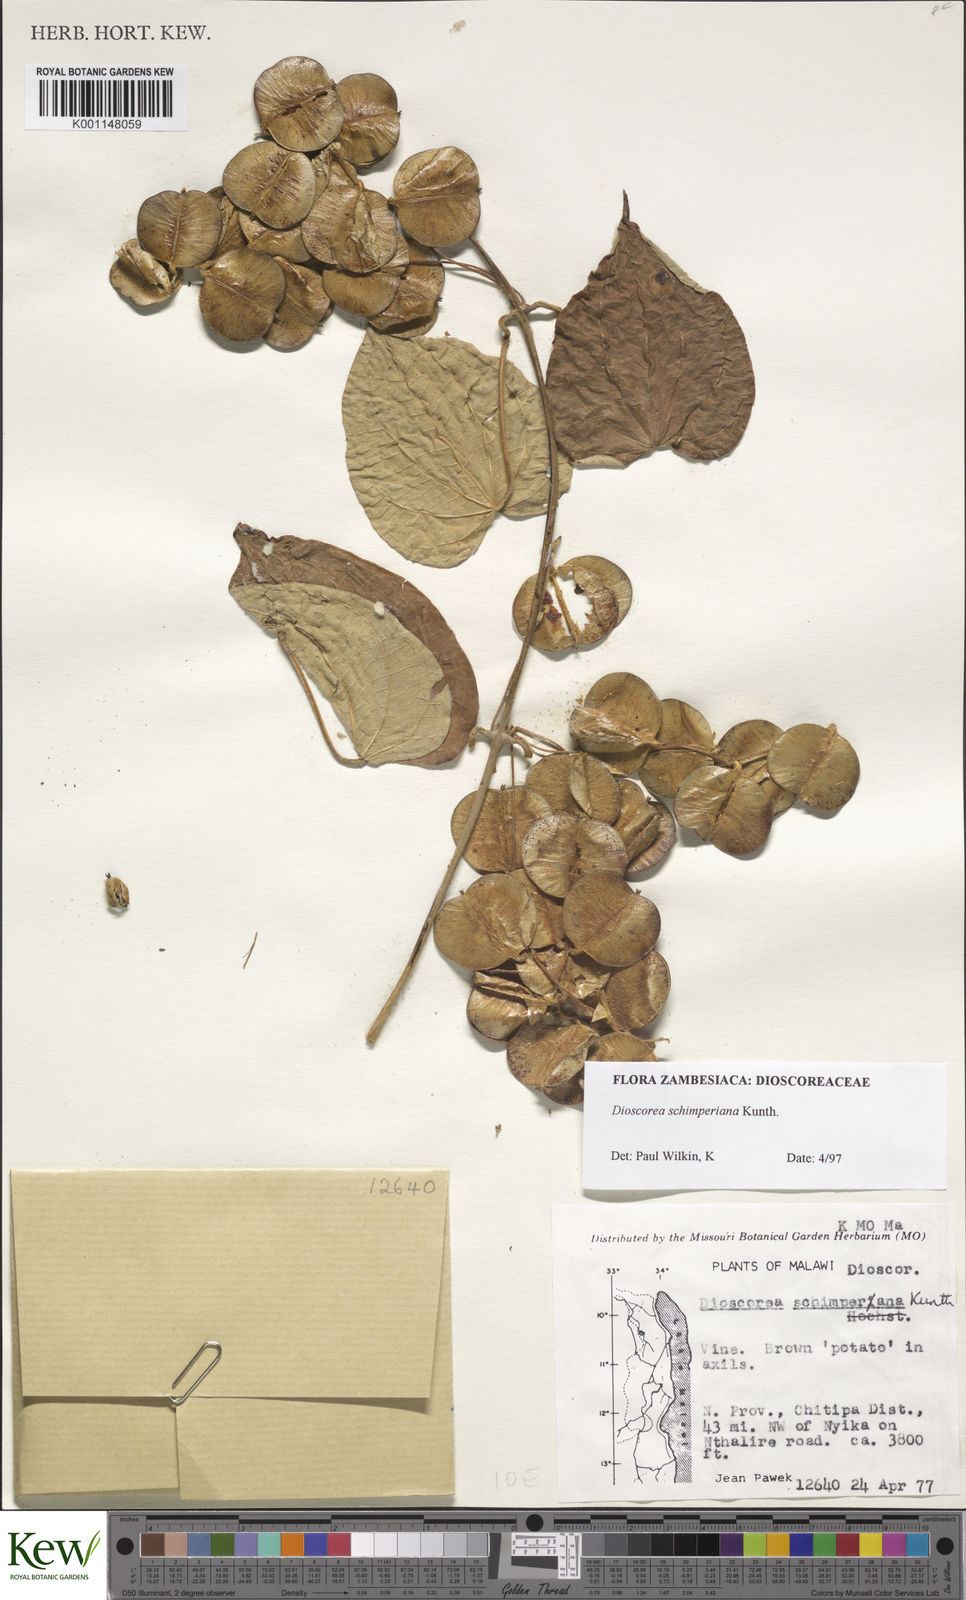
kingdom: Plantae
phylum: Tracheophyta
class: Liliopsida
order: Dioscoreales
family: Dioscoreaceae
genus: Dioscorea
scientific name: Dioscorea schimperiana
